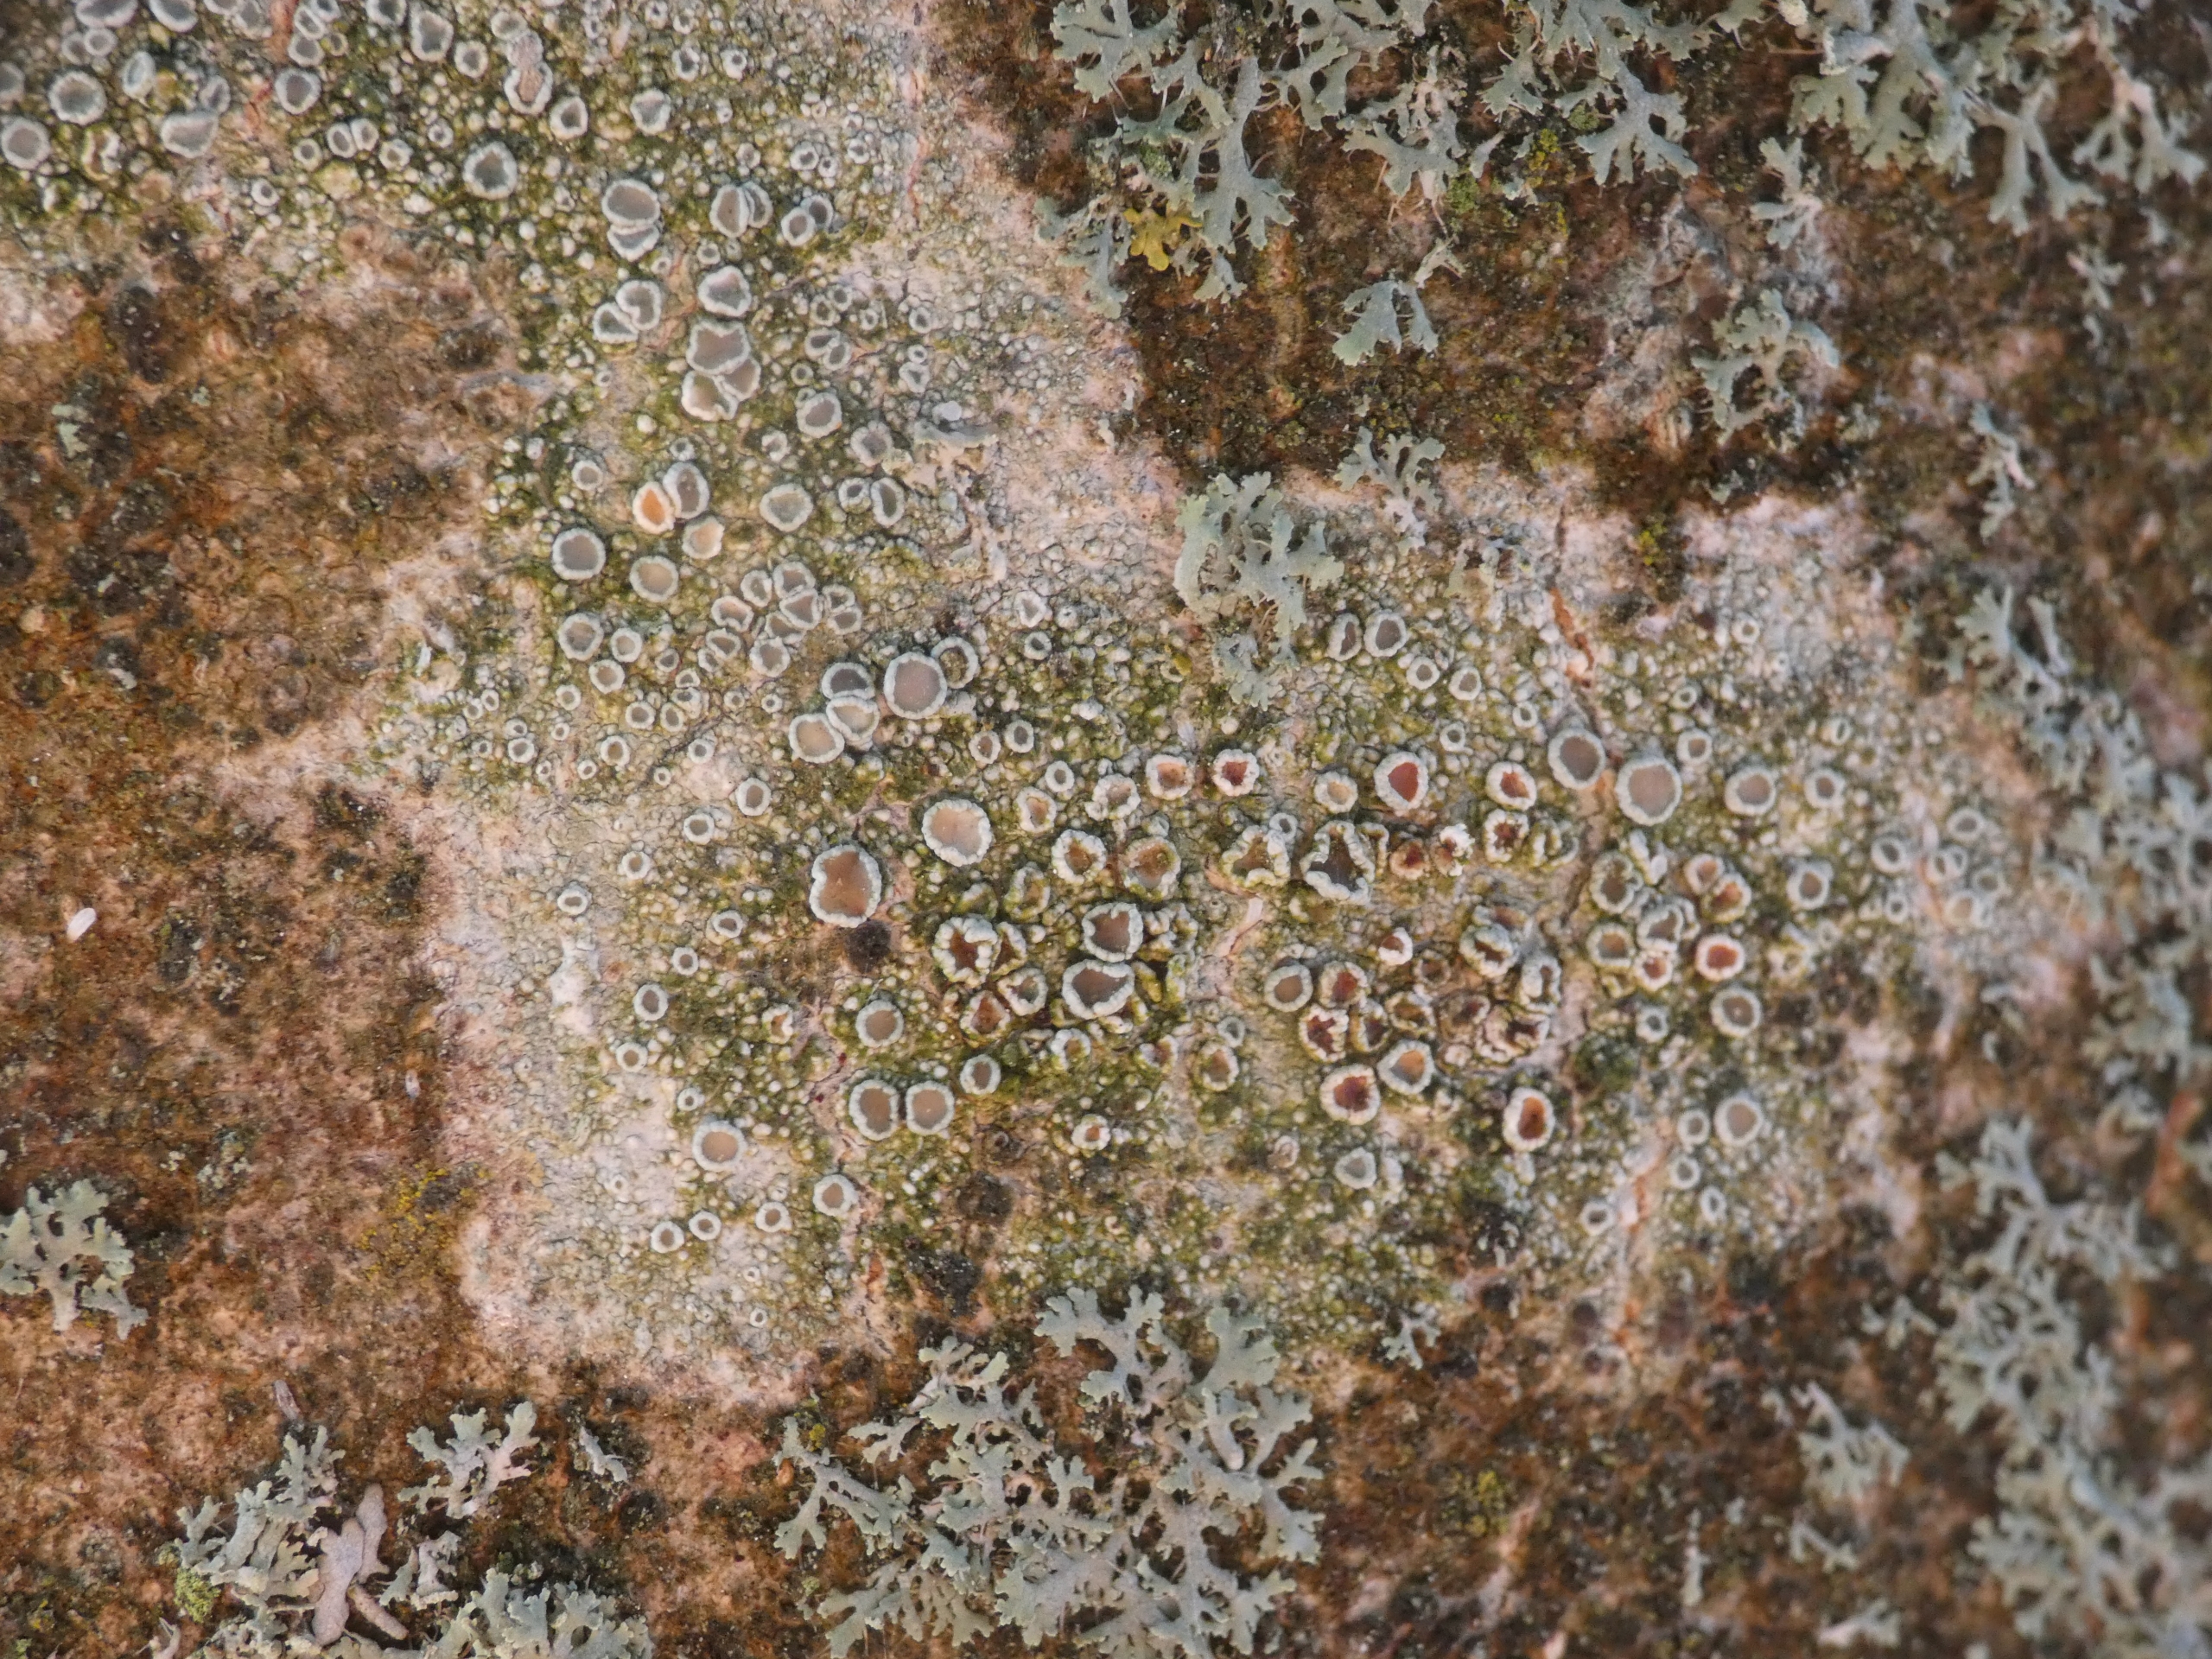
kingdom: Fungi
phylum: Ascomycota
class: Lecanoromycetes
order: Lecanorales
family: Lecanoraceae
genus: Lecanora
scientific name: Lecanora chlarotera
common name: Brun kantskivelav
